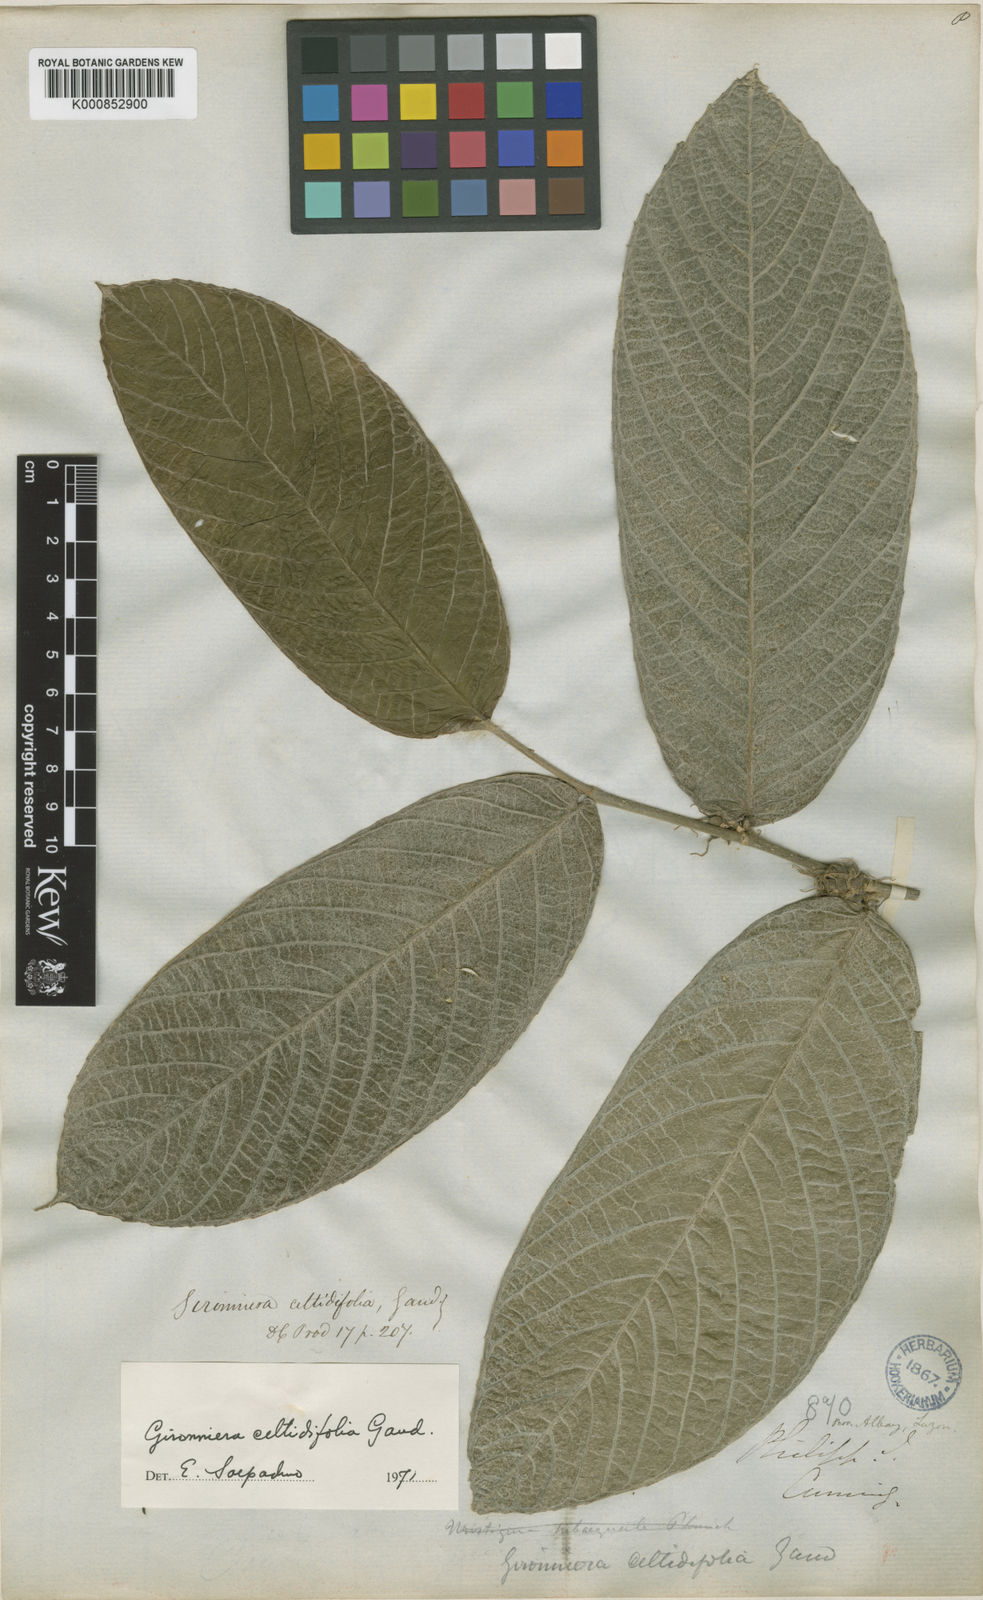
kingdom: Plantae
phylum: Tracheophyta
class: Magnoliopsida
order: Rosales
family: Cannabaceae
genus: Gironniera
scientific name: Gironniera celtidifolia
